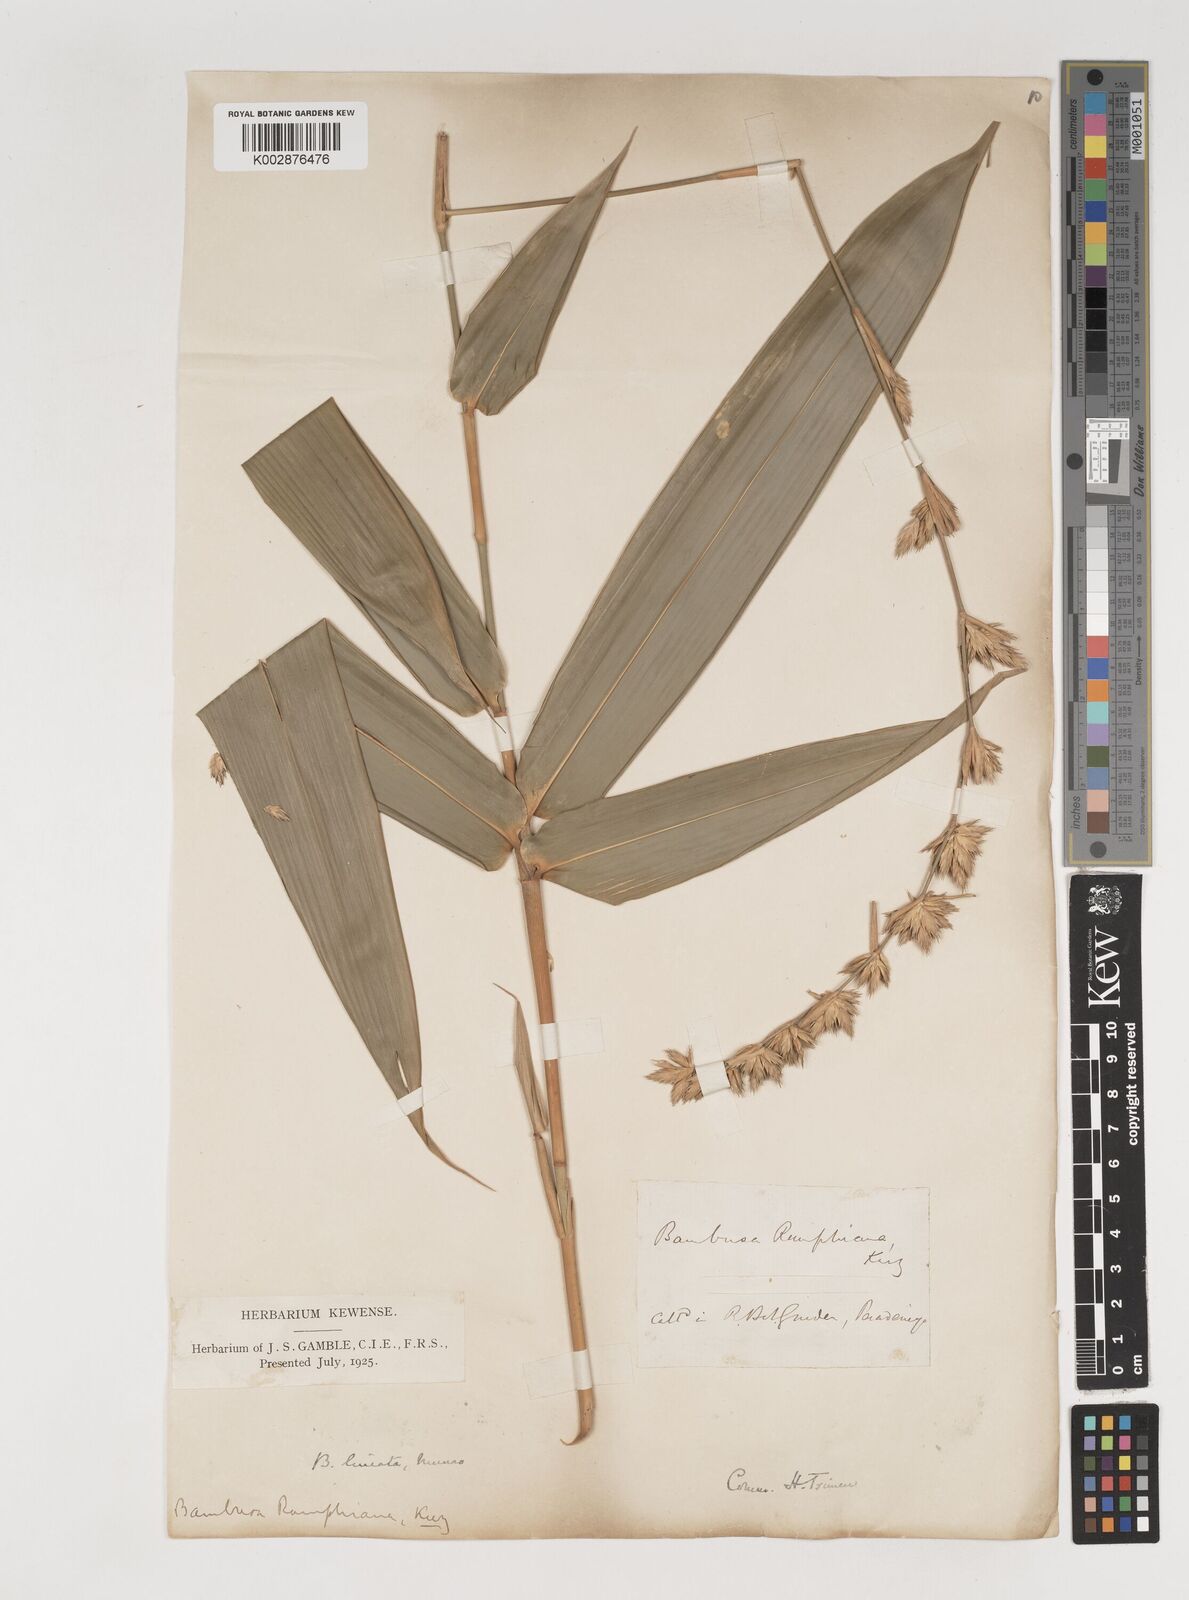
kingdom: Plantae
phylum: Tracheophyta
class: Liliopsida
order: Poales
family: Poaceae
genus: Neololeba
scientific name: Neololeba amahussana
